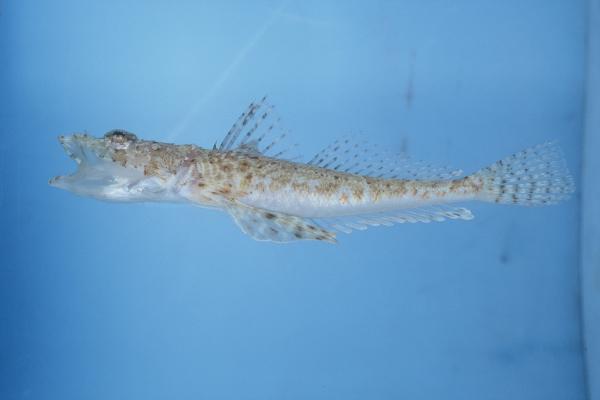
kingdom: Animalia
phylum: Chordata
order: Scorpaeniformes
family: Platycephalidae
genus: Sunagocia
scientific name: Sunagocia arenicola
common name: Broadhead flathead
